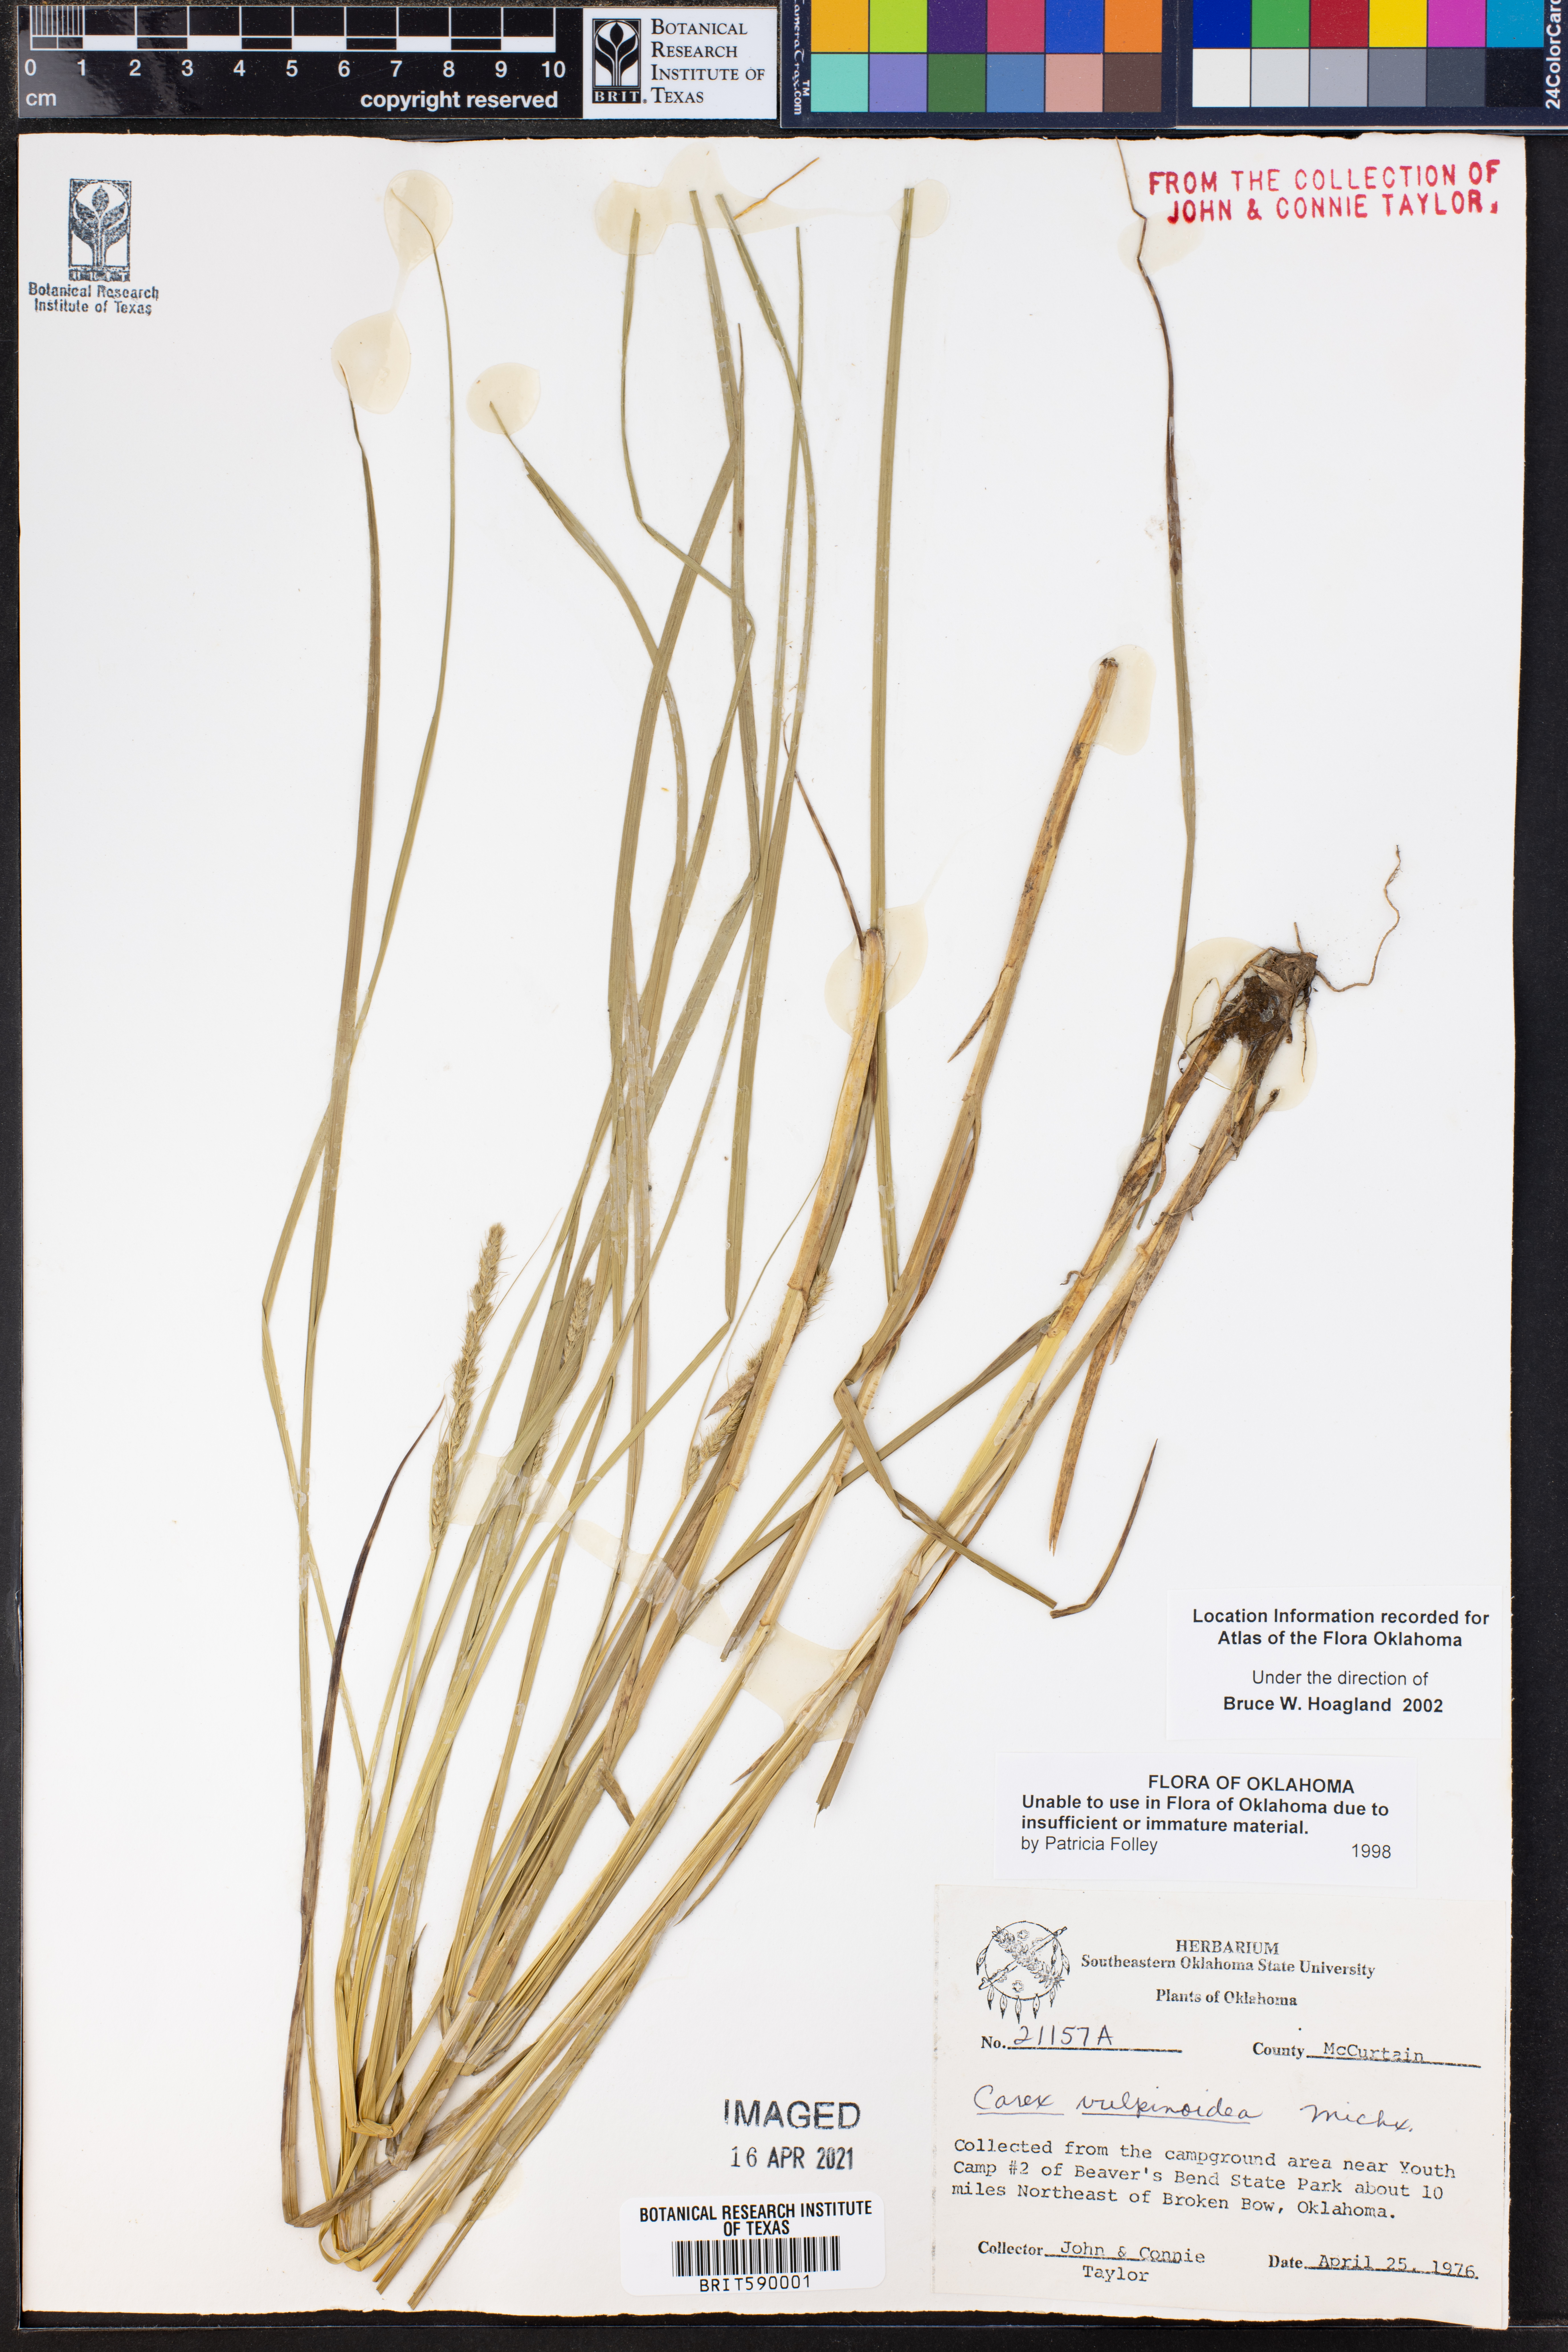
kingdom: Plantae
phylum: Tracheophyta
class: Liliopsida
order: Poales
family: Cyperaceae
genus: Carex
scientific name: Carex vulpinoidea
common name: American fox-sedge
